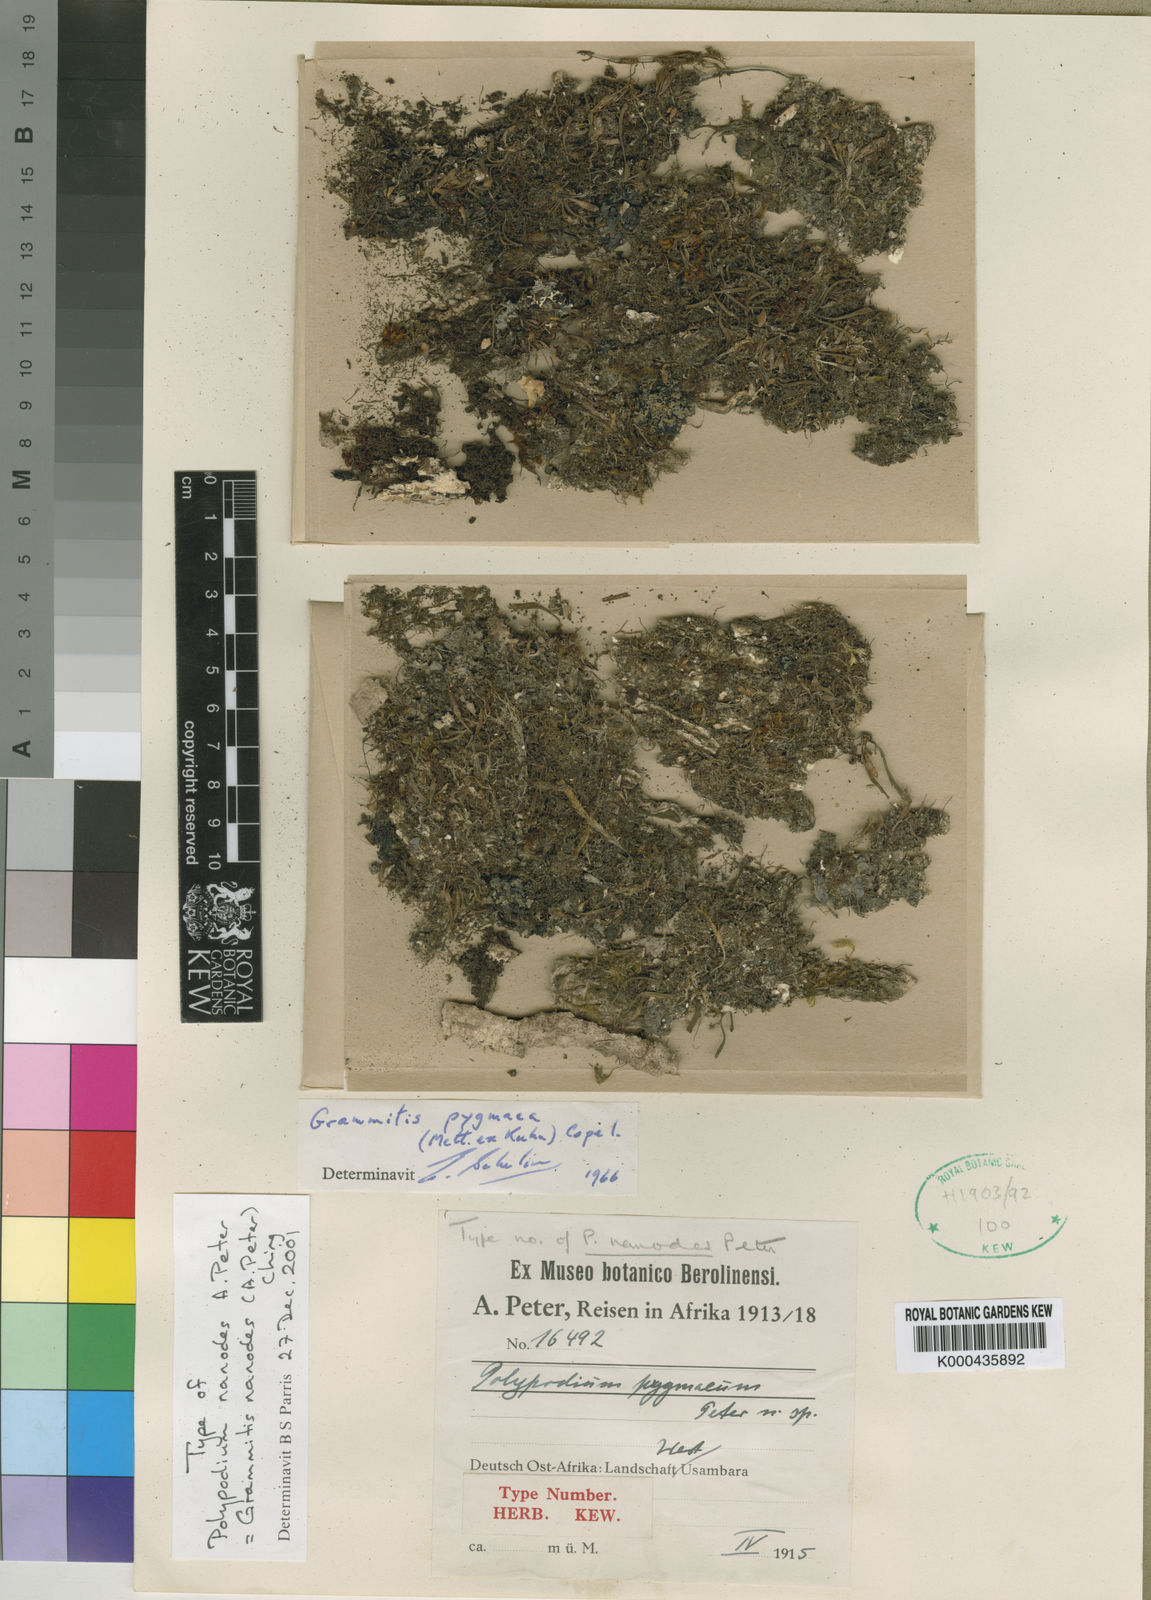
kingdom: Plantae
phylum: Tracheophyta
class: Polypodiopsida
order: Polypodiales
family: Polypodiaceae
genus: Grammitis
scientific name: Grammitis pygmaea
